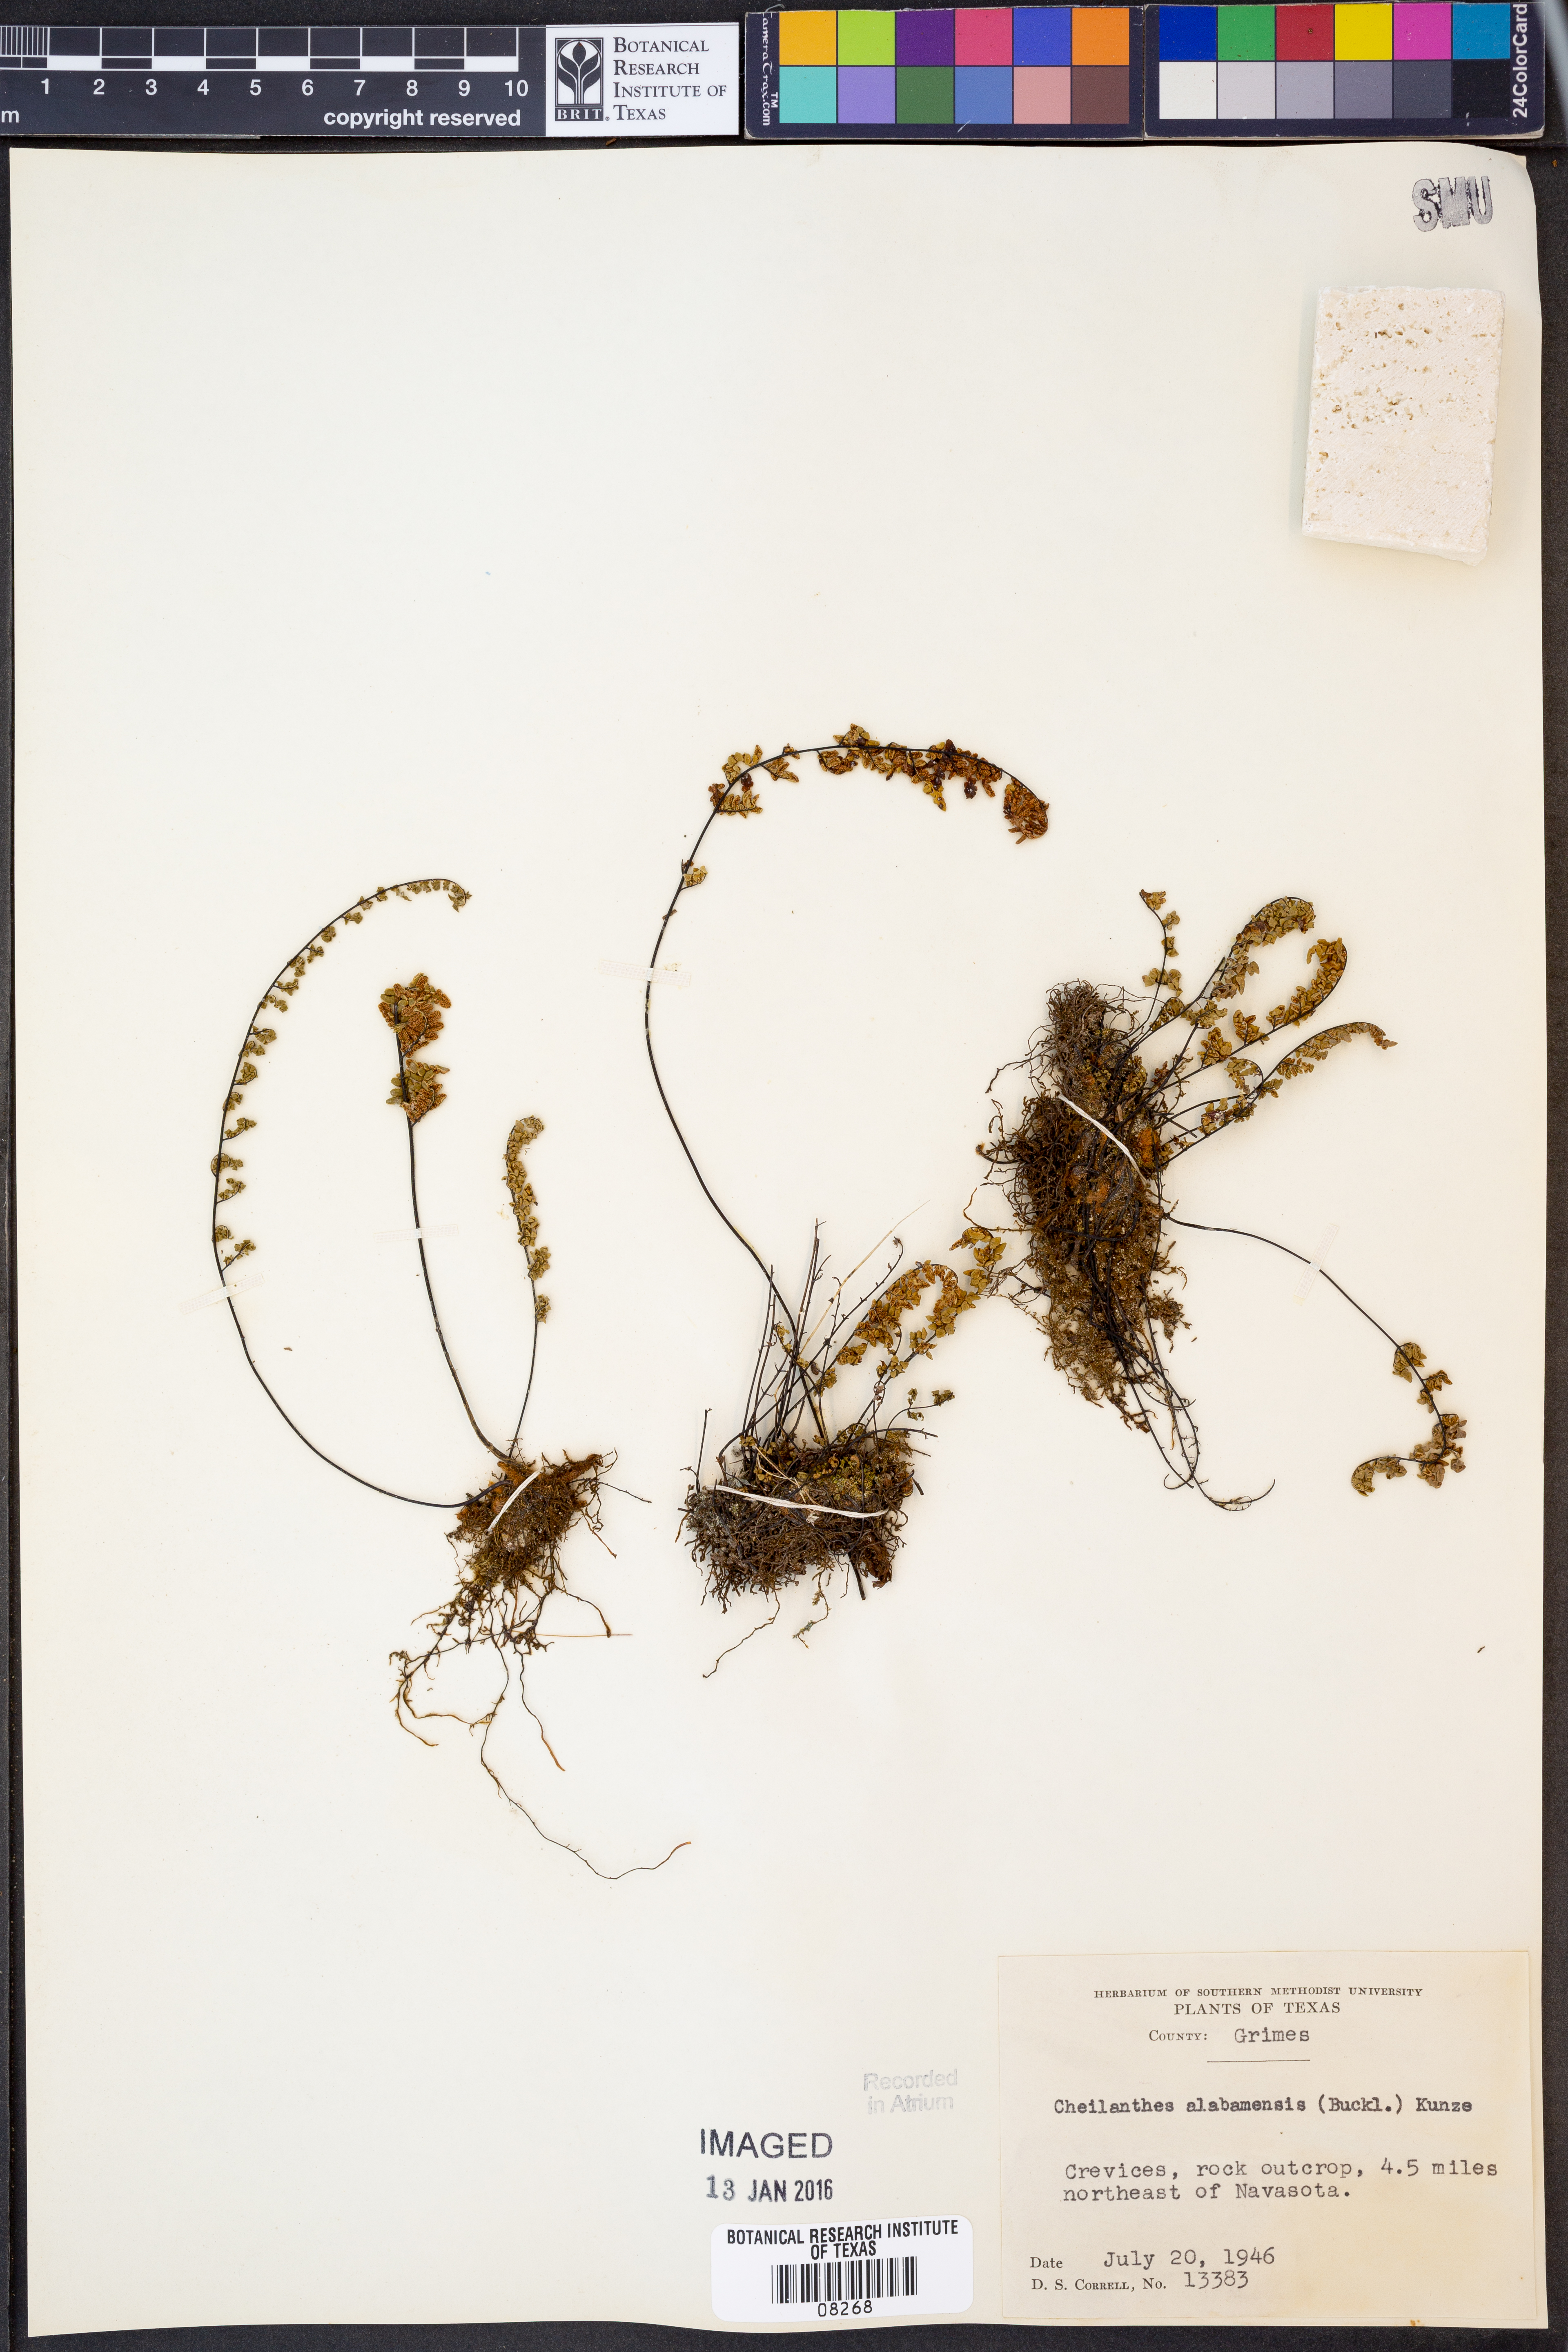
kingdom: Plantae
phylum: Tracheophyta
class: Polypodiopsida
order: Polypodiales
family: Pteridaceae
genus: Myriopteris
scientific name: Myriopteris alabamensis
